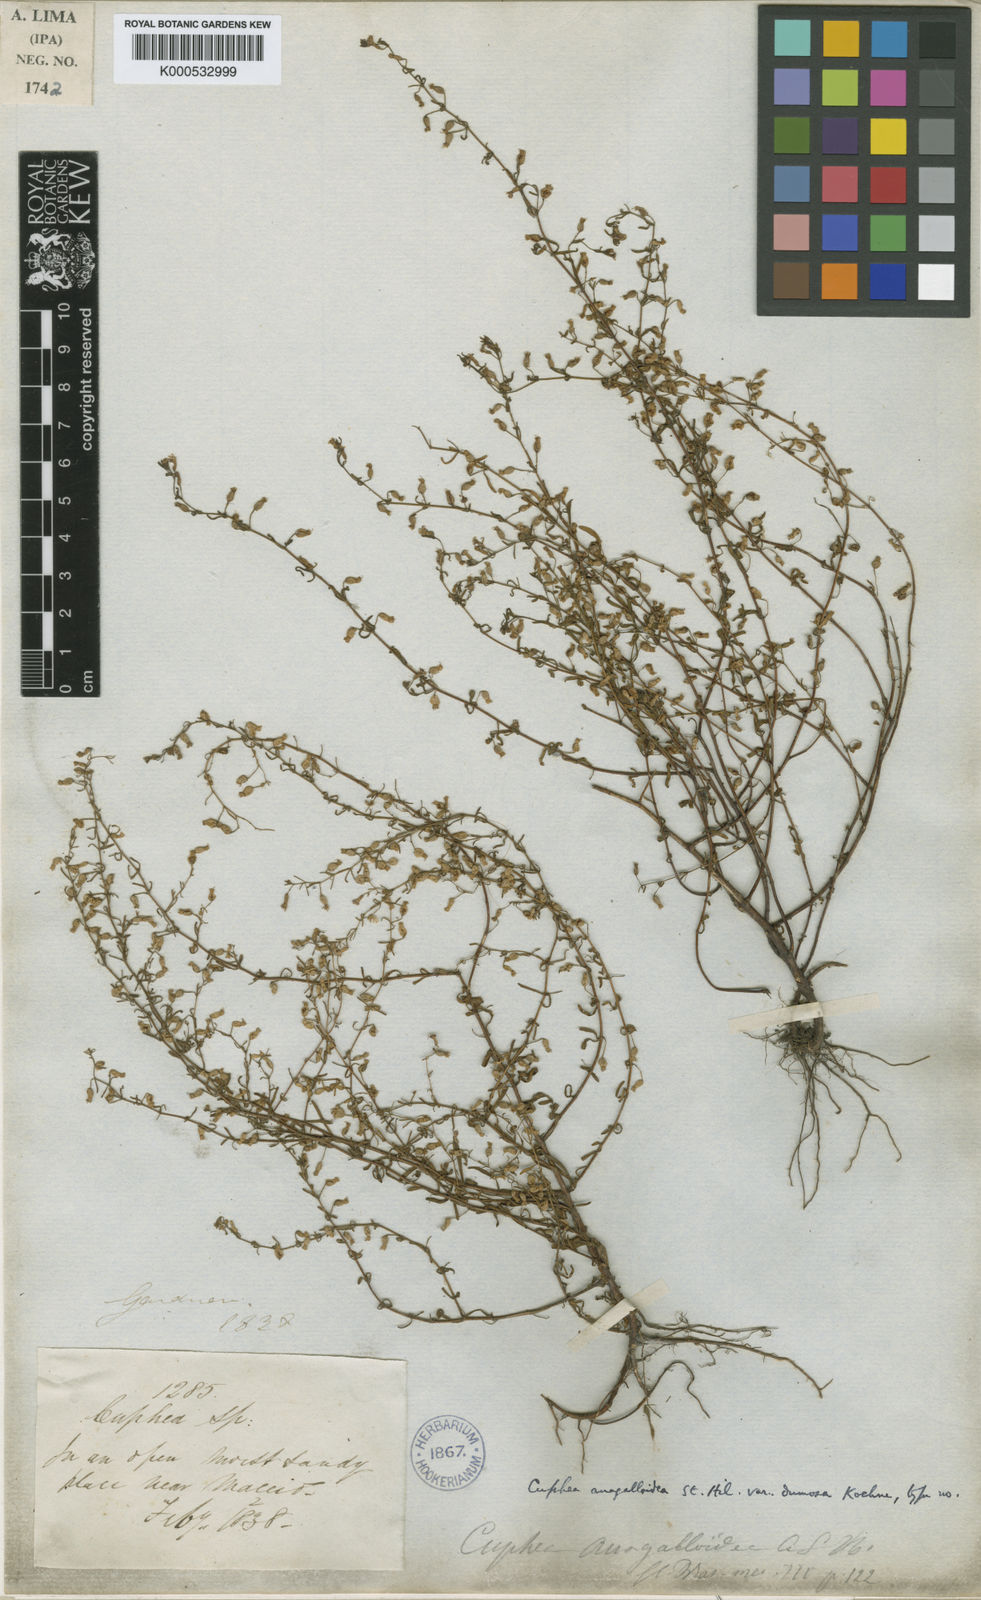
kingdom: Plantae
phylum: Tracheophyta
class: Magnoliopsida
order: Myrtales
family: Lythraceae
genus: Cuphea
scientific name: Cuphea anagalloidea
